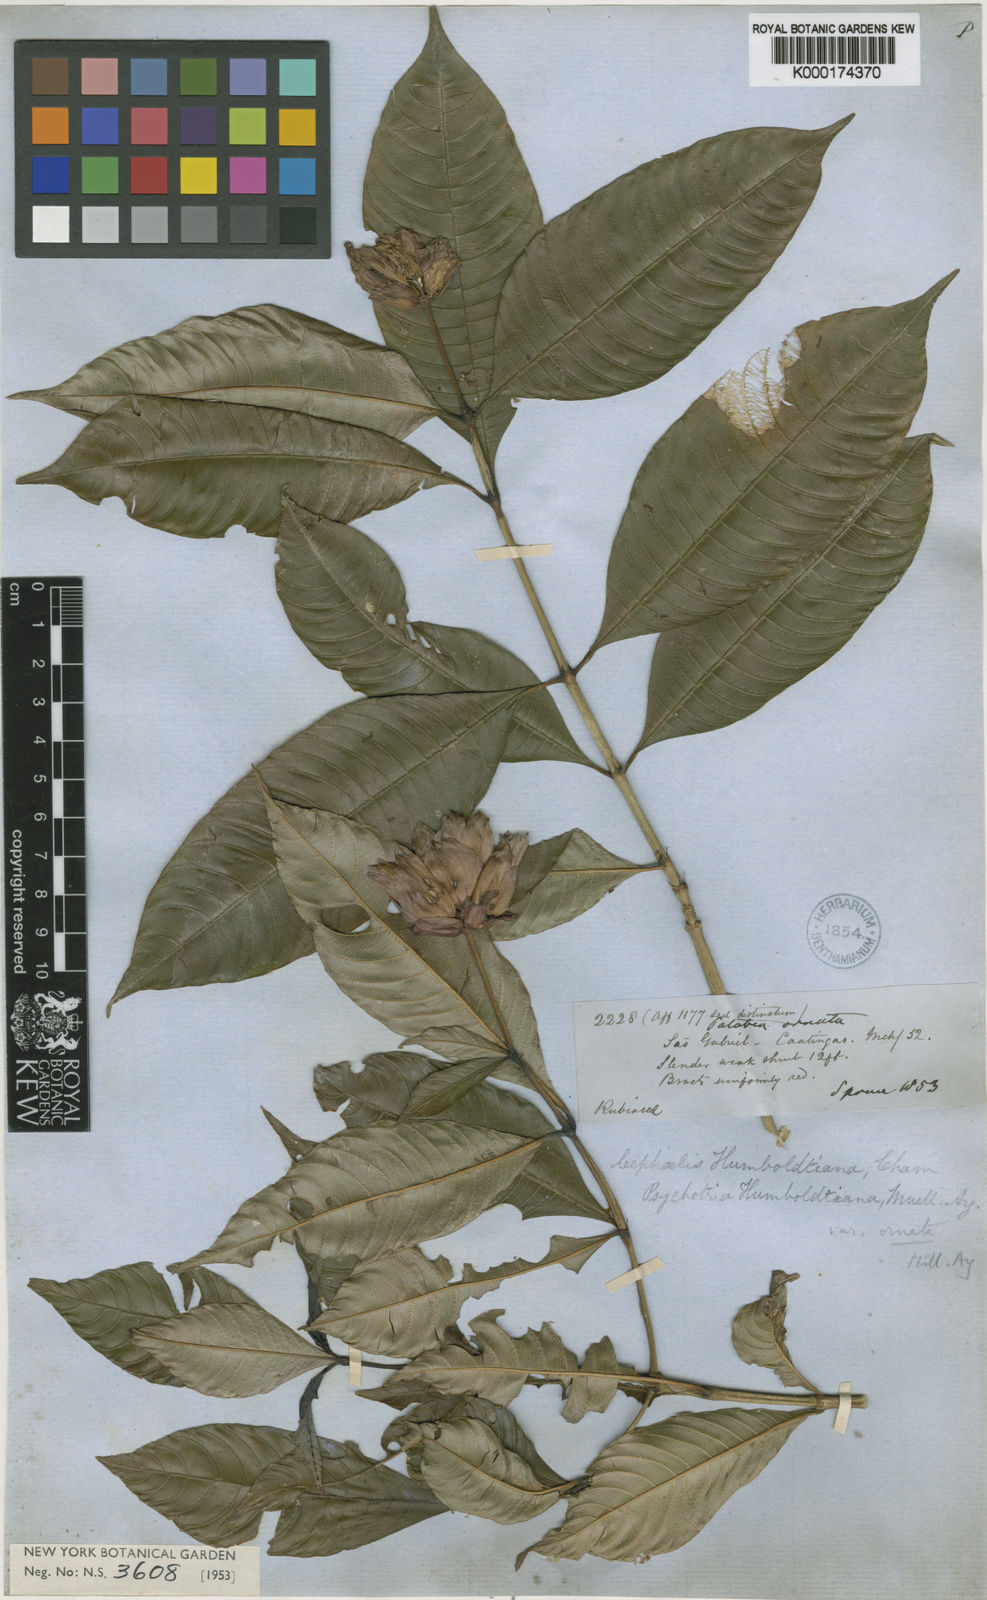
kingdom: Plantae
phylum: Tracheophyta
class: Magnoliopsida
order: Gentianales
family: Rubiaceae
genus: Psychotria
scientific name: Psychotria
